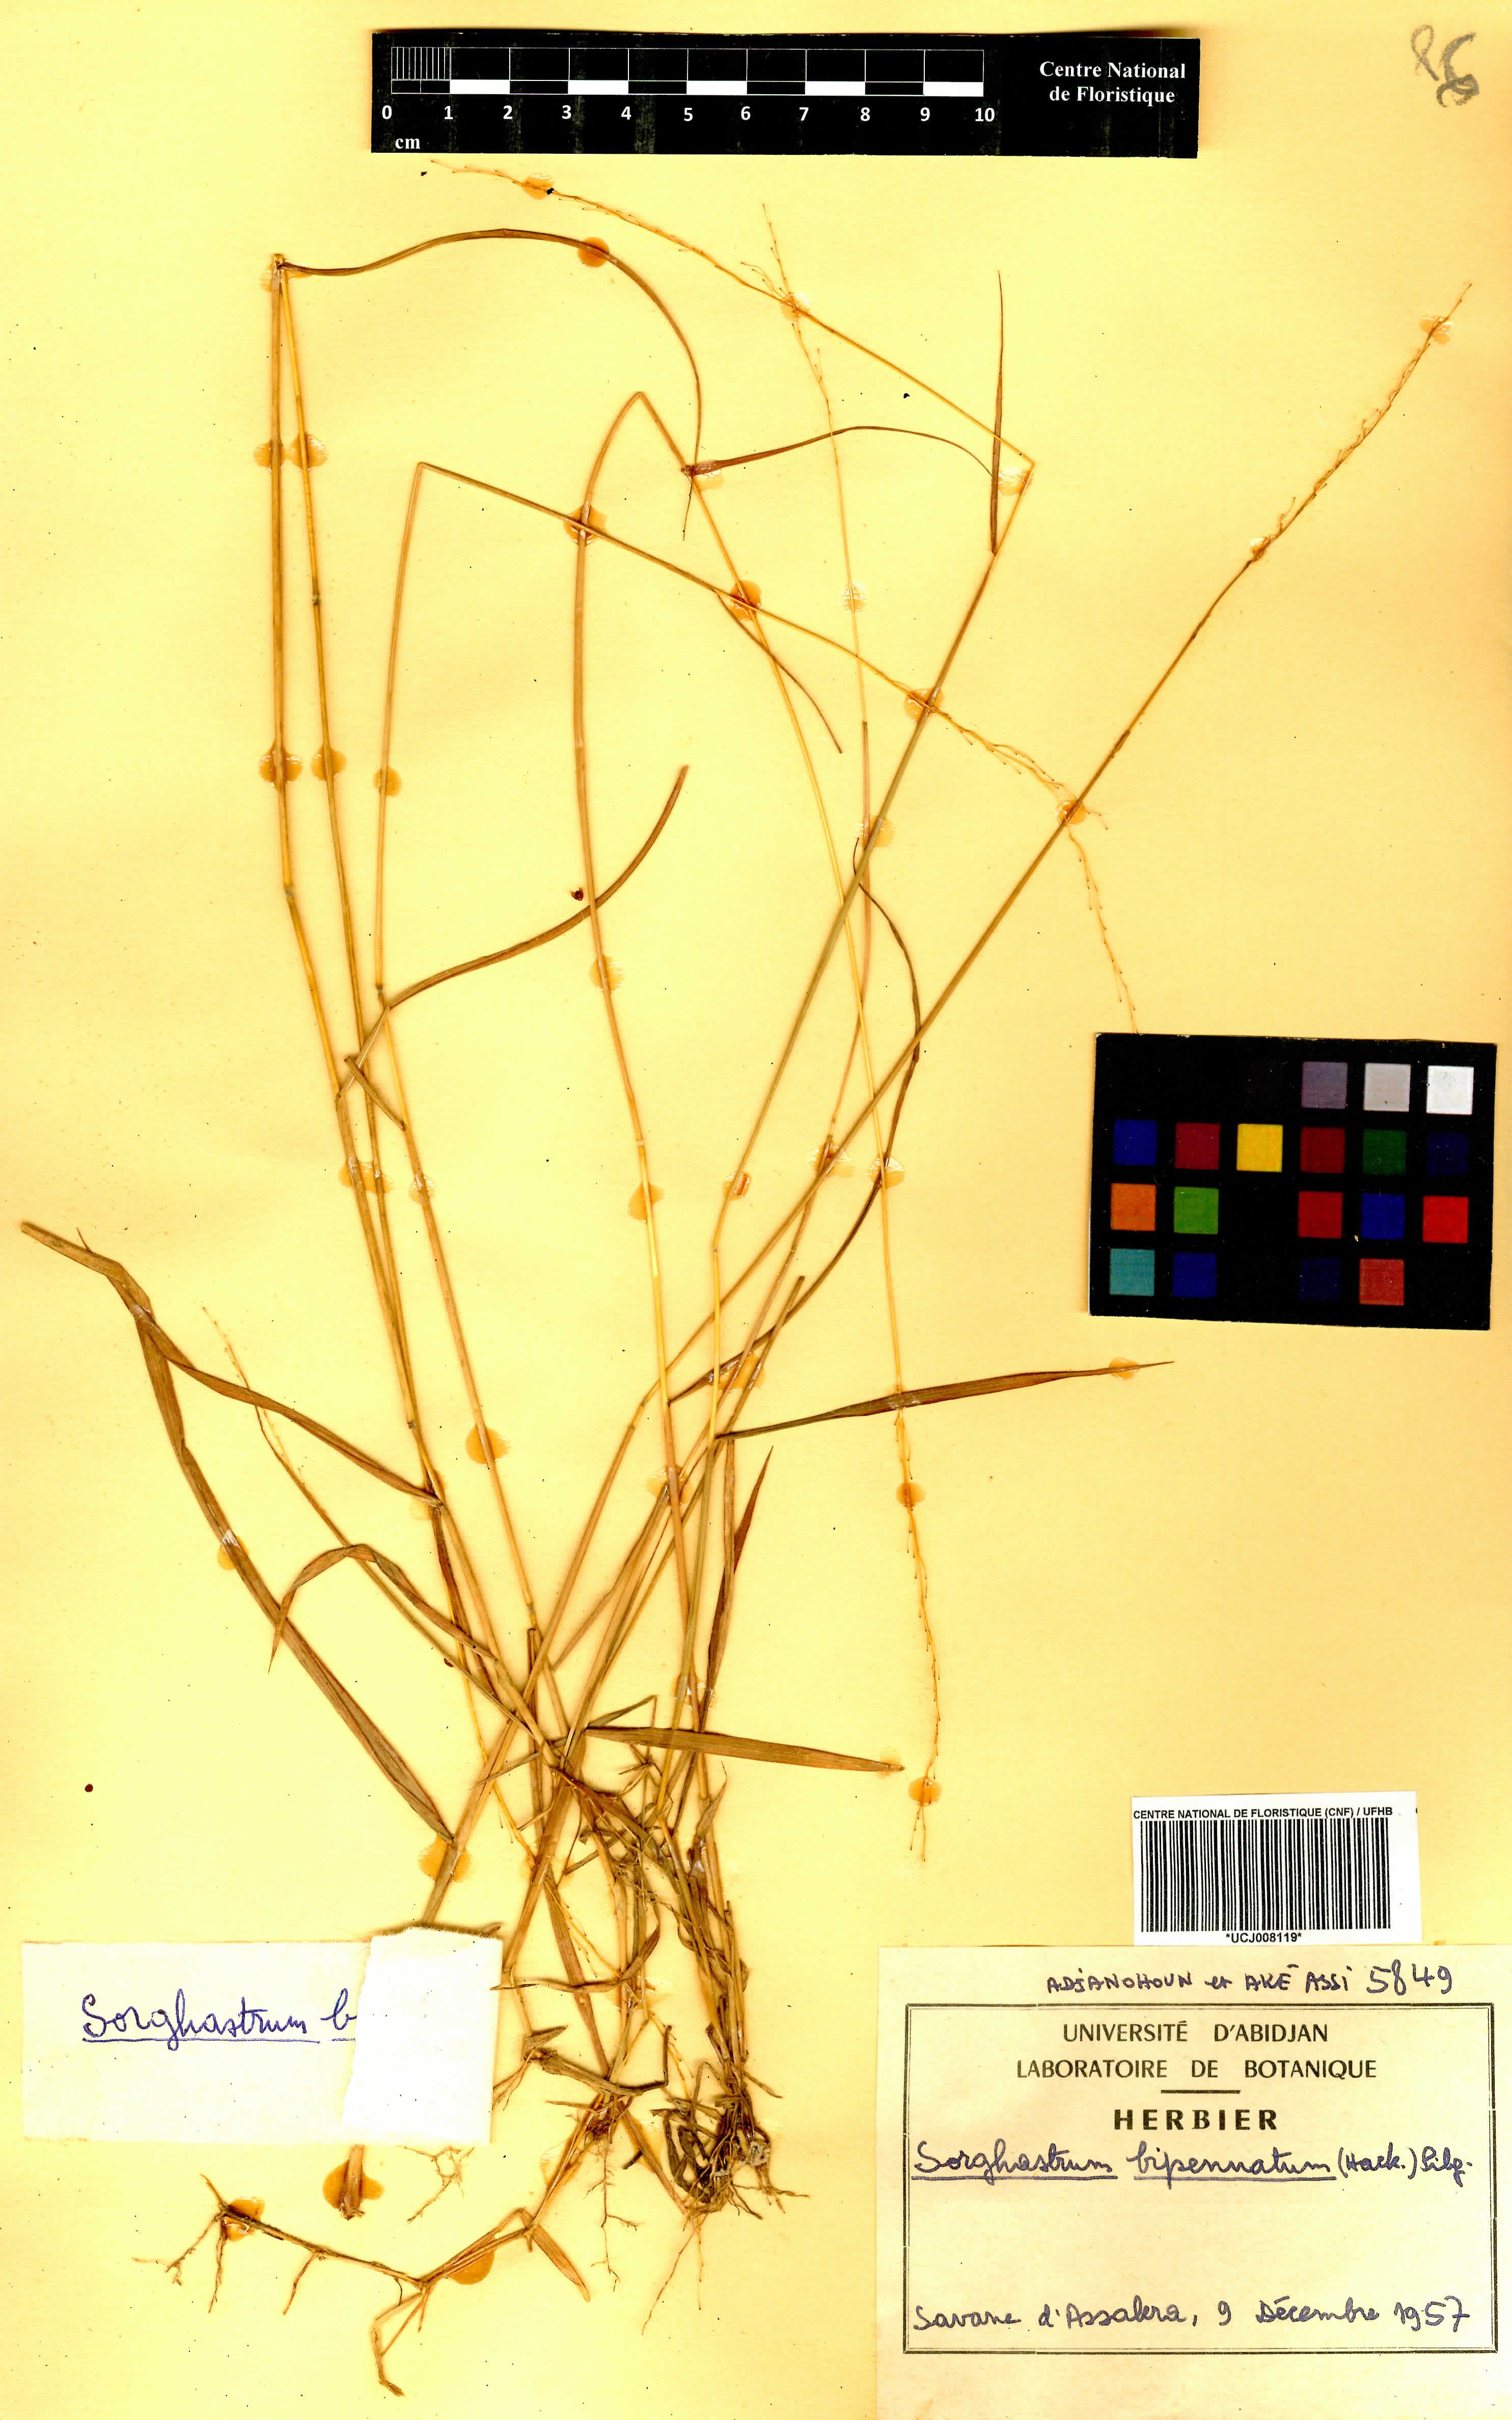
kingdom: Plantae
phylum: Tracheophyta
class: Liliopsida
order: Poales
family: Poaceae
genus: Sorghastrum
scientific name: Sorghastrum incompletum
